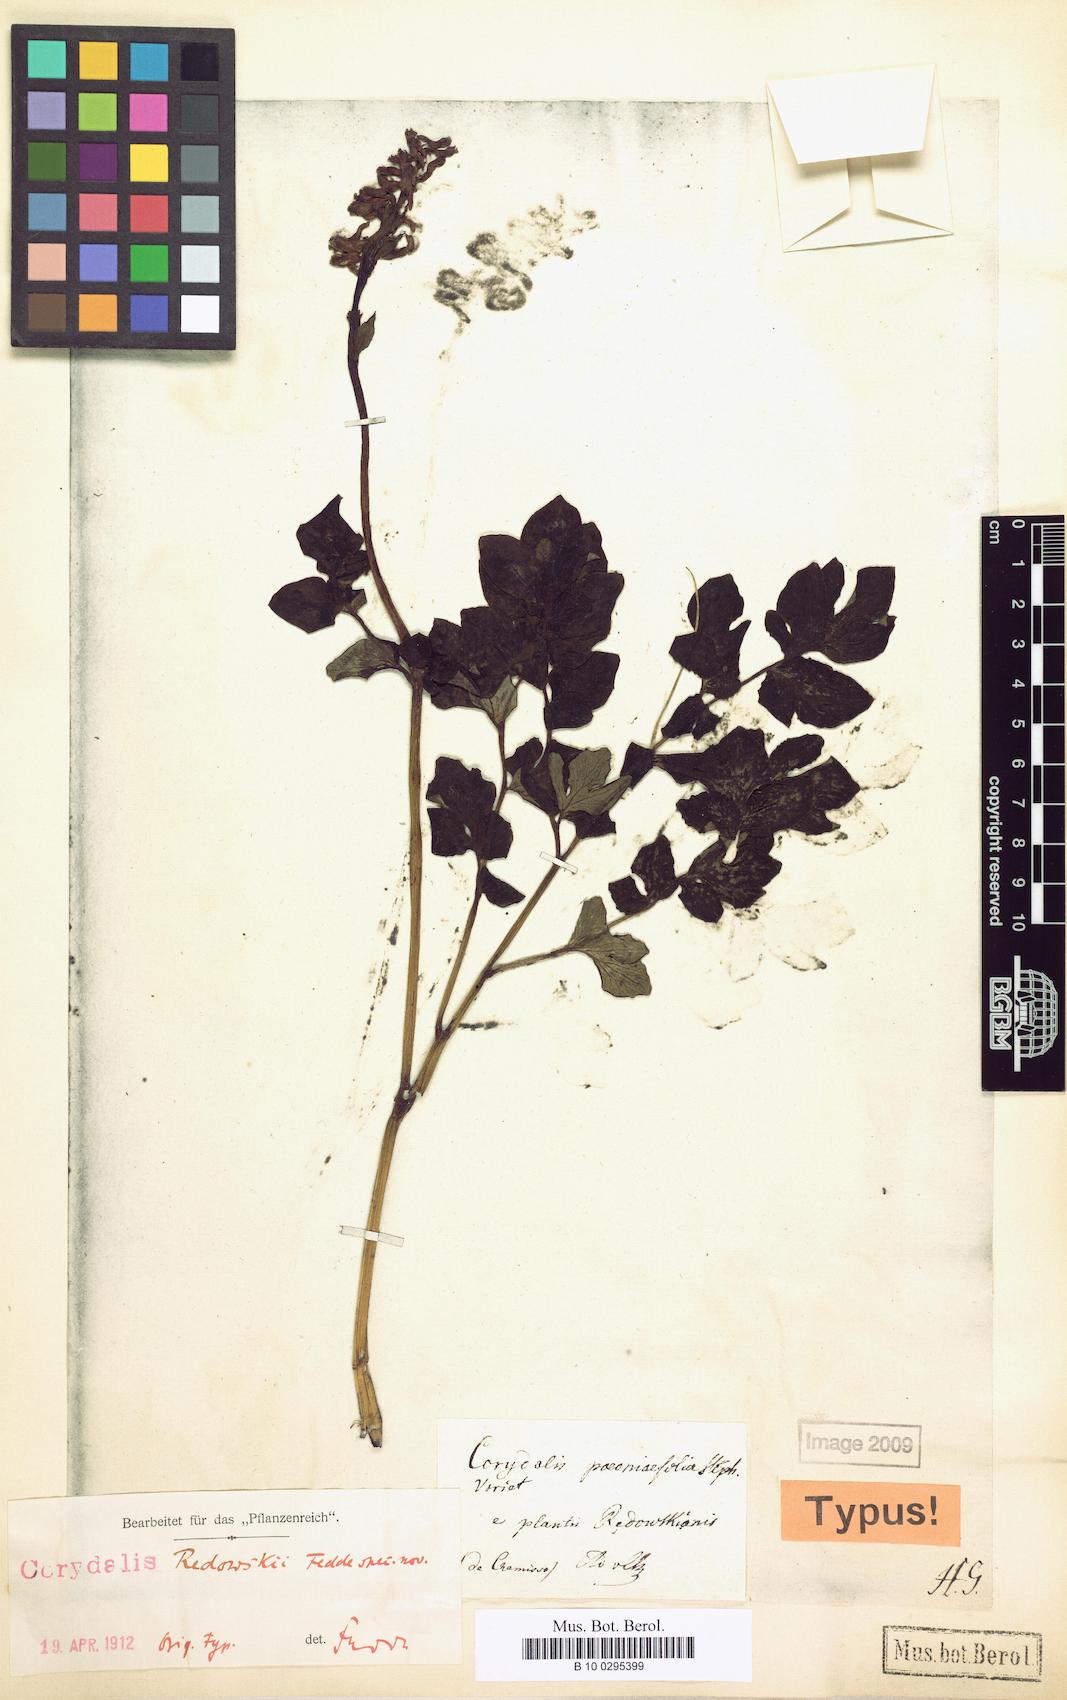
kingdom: Plantae
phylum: Tracheophyta
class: Magnoliopsida
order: Ranunculales
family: Papaveraceae
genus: Corydalis
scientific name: Corydalis paeoniifolia
